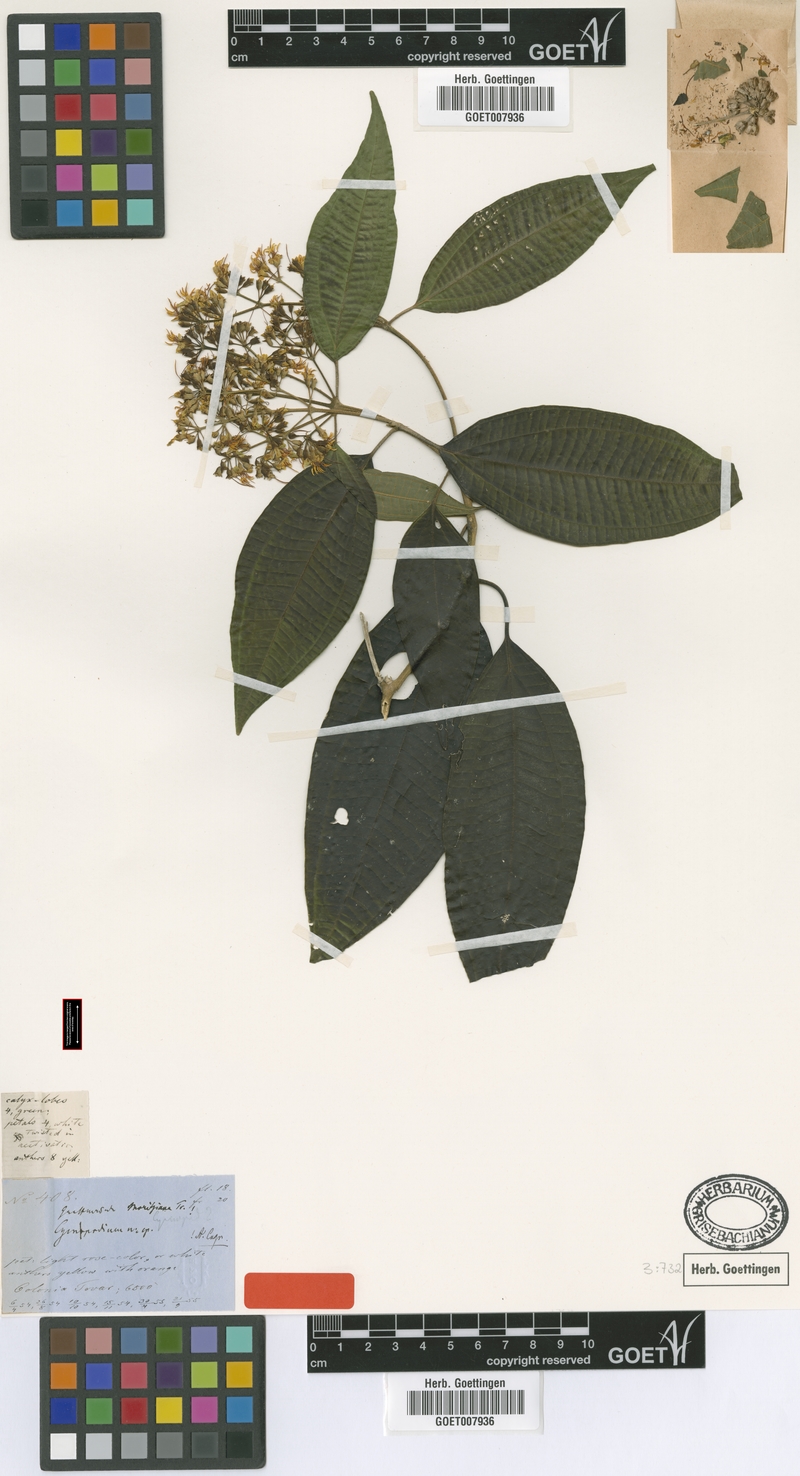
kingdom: Plantae
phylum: Tracheophyta
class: Magnoliopsida
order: Myrtales
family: Melastomataceae
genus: Graffenrieda
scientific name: Graffenrieda moritziana
